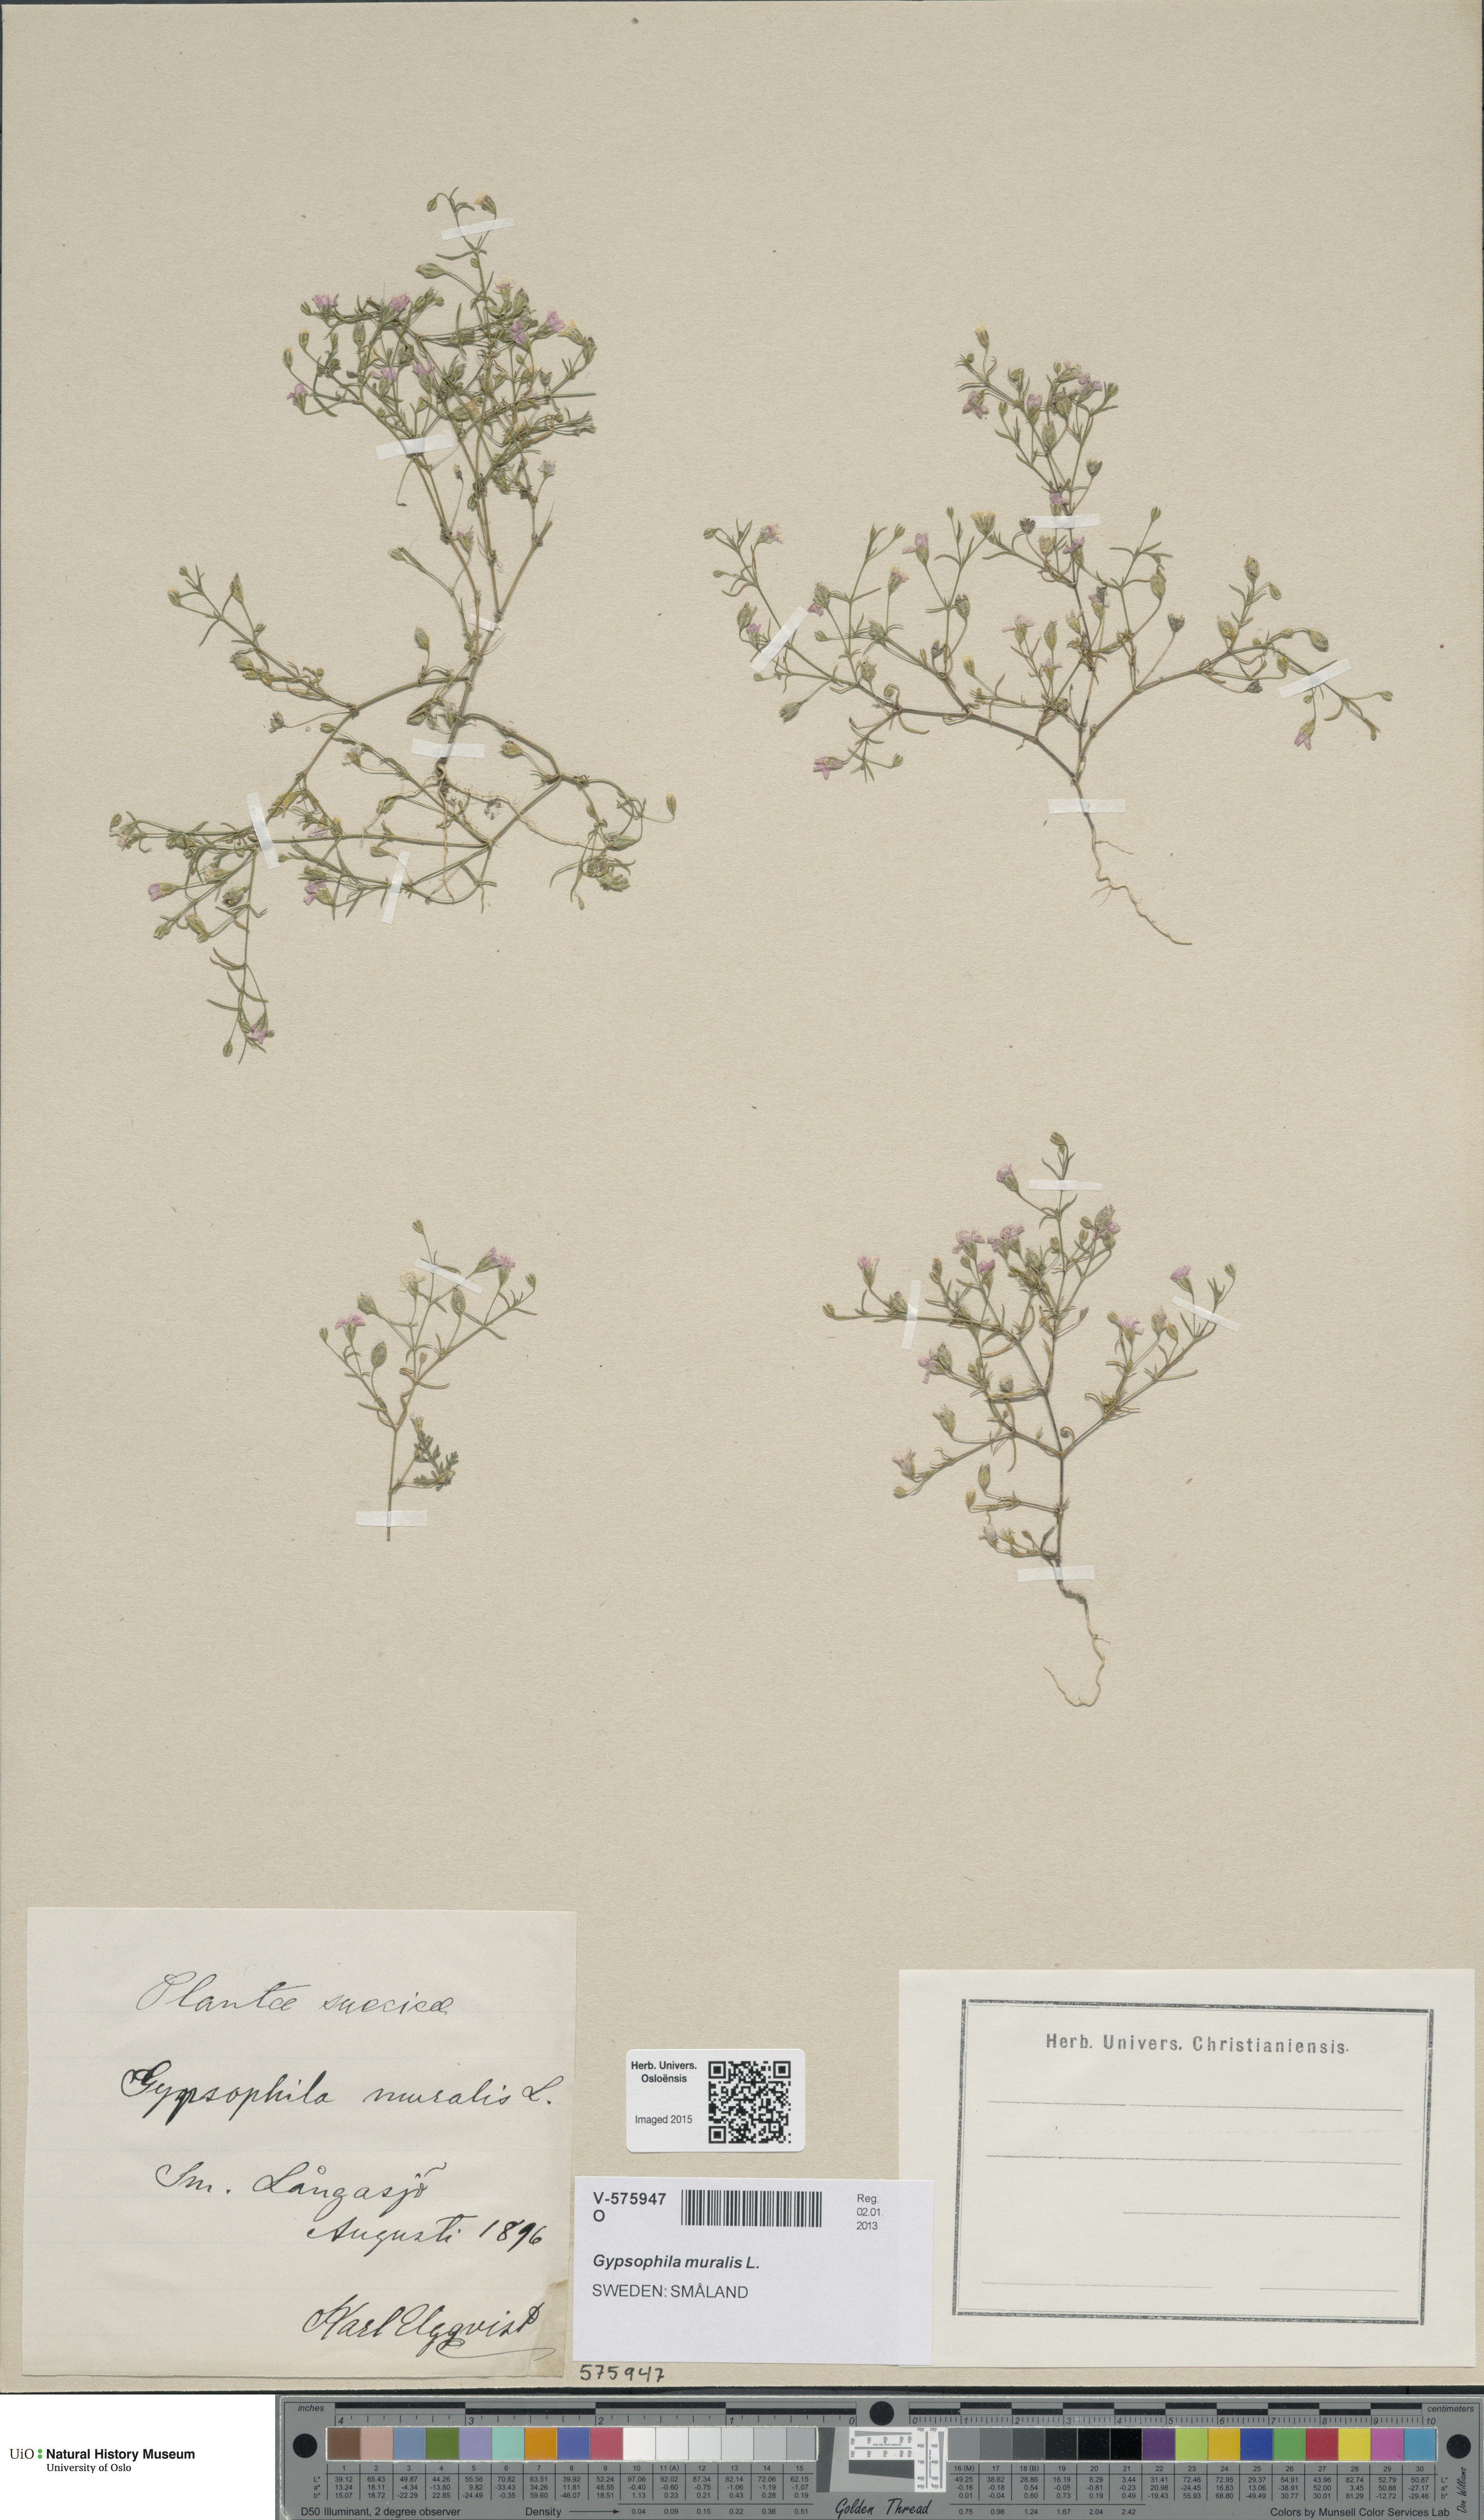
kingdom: Plantae
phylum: Tracheophyta
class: Magnoliopsida
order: Caryophyllales
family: Caryophyllaceae
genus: Psammophiliella
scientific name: Psammophiliella muralis
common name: Cushion baby's-breath
